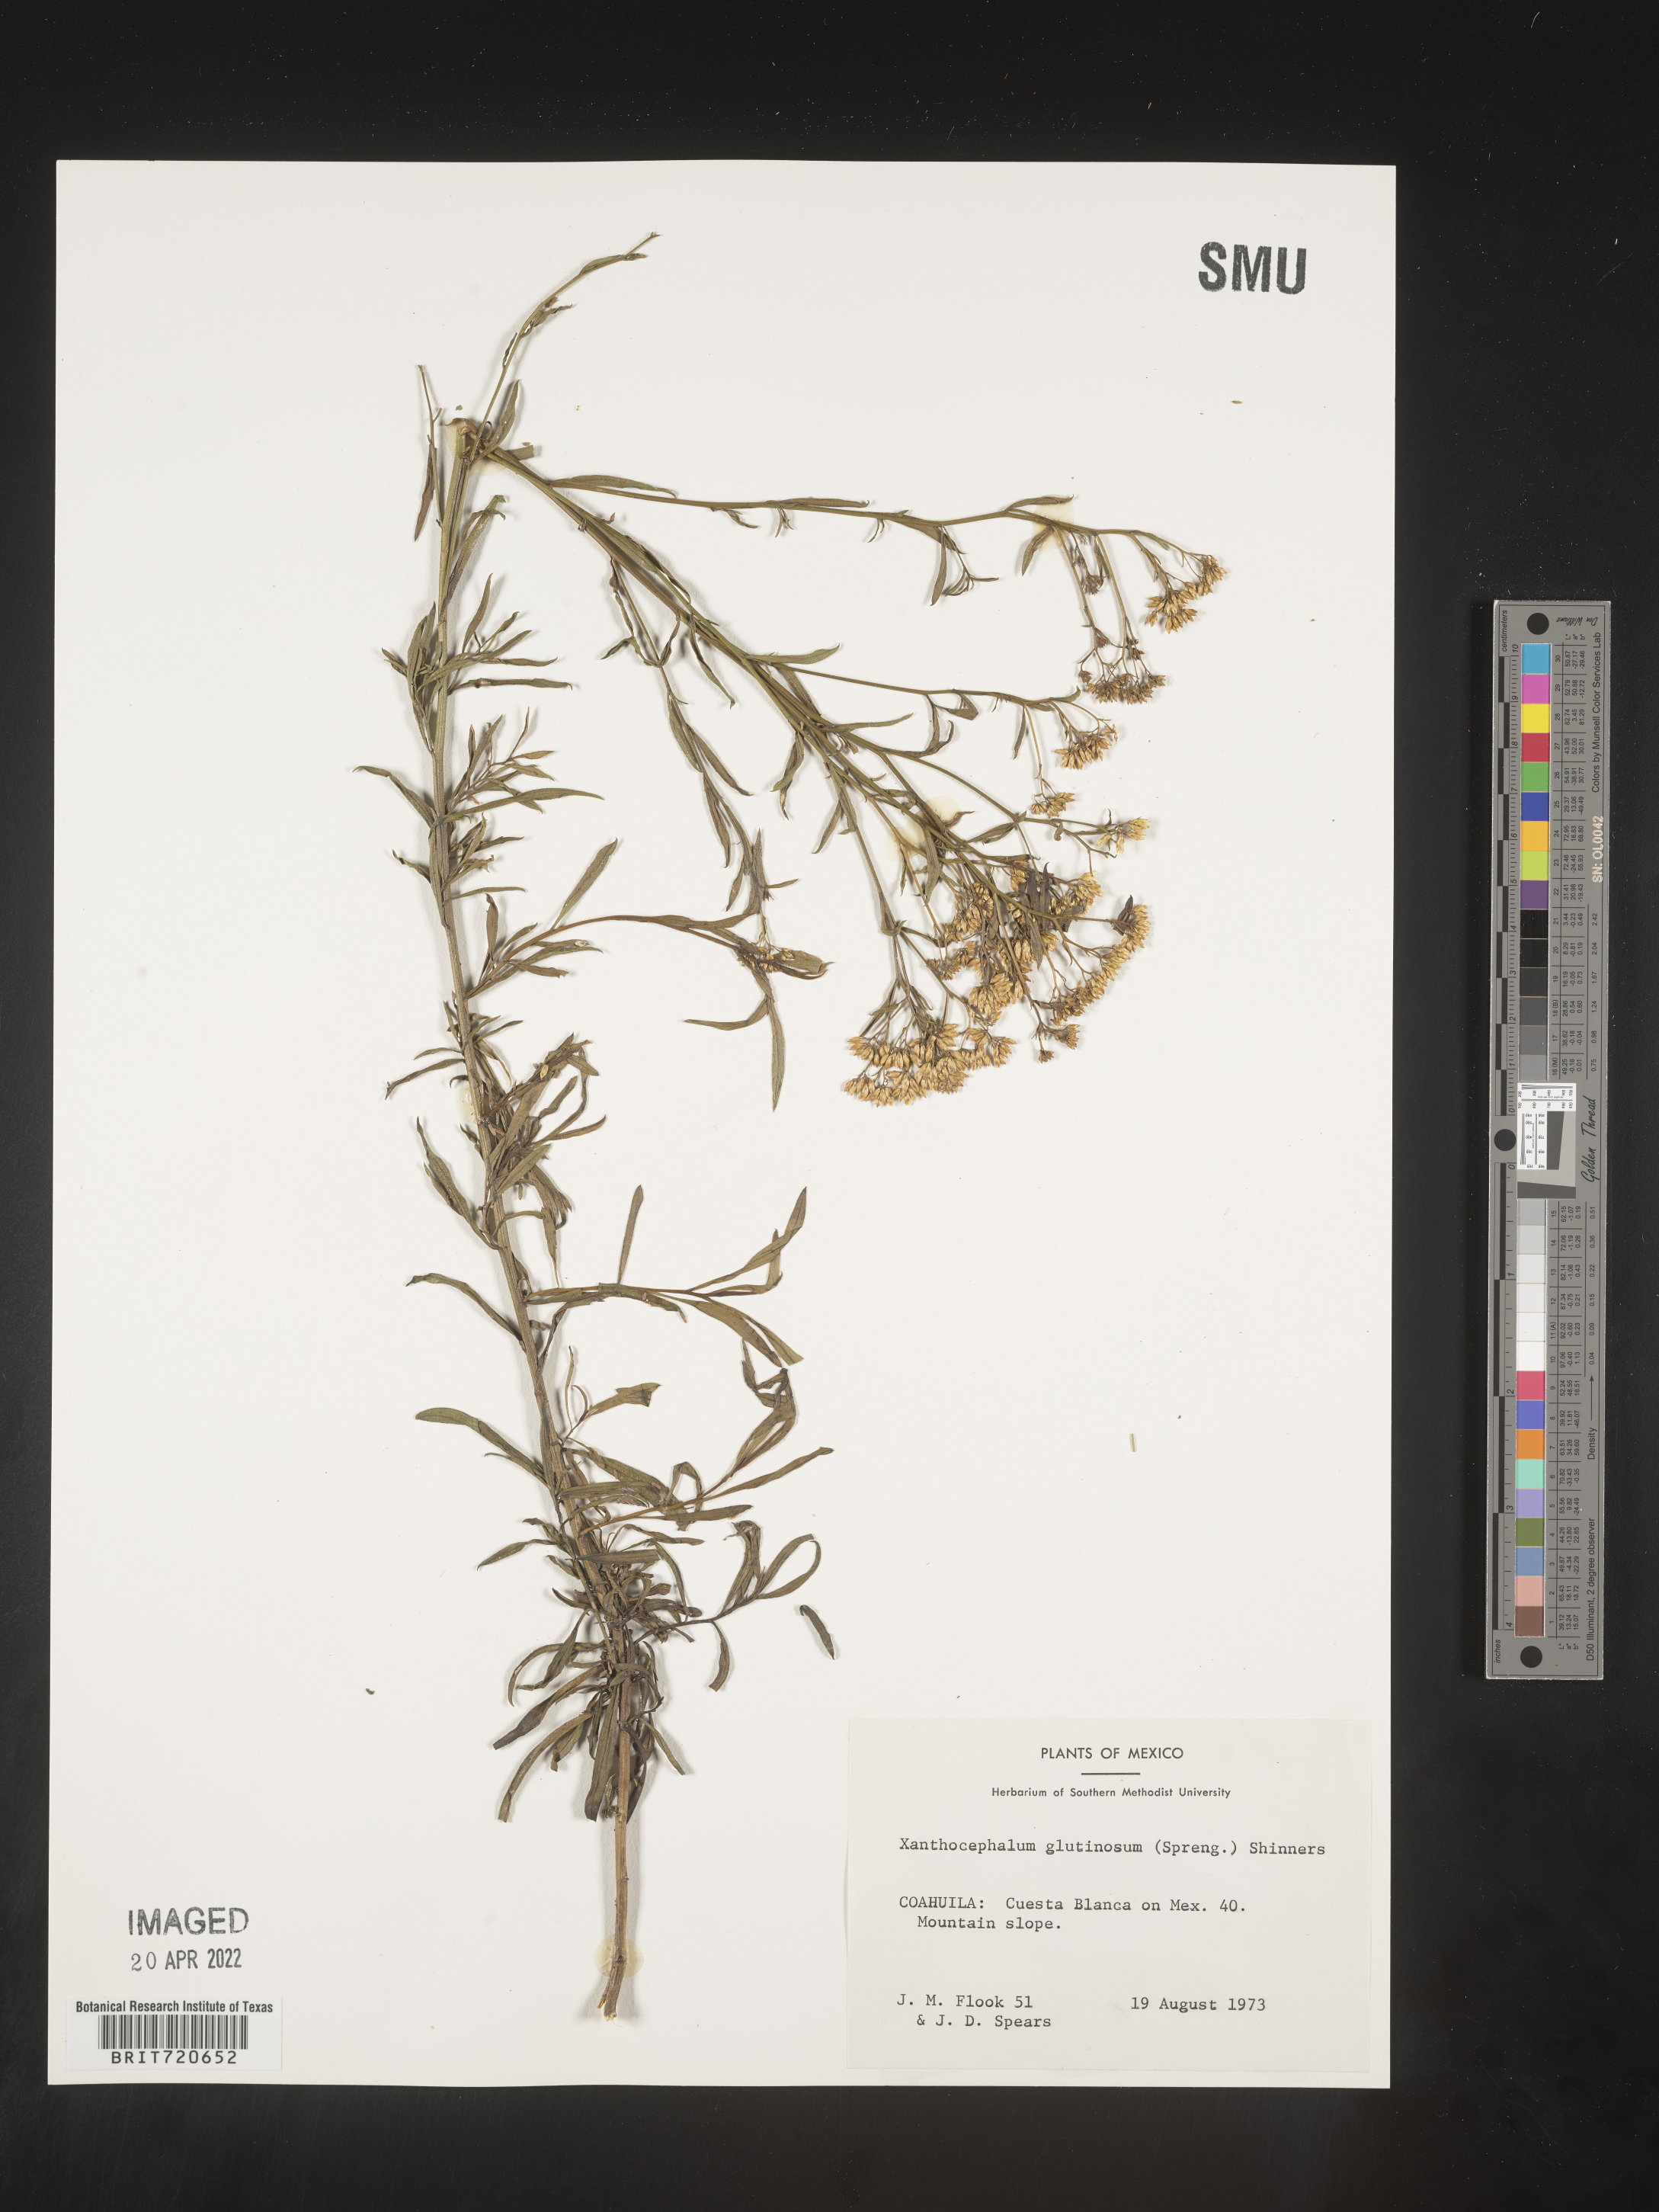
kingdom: Plantae
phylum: Tracheophyta
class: Magnoliopsida
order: Asterales
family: Asteraceae
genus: Gymnosperma
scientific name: Gymnosperma glutinosum
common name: Gumhead
